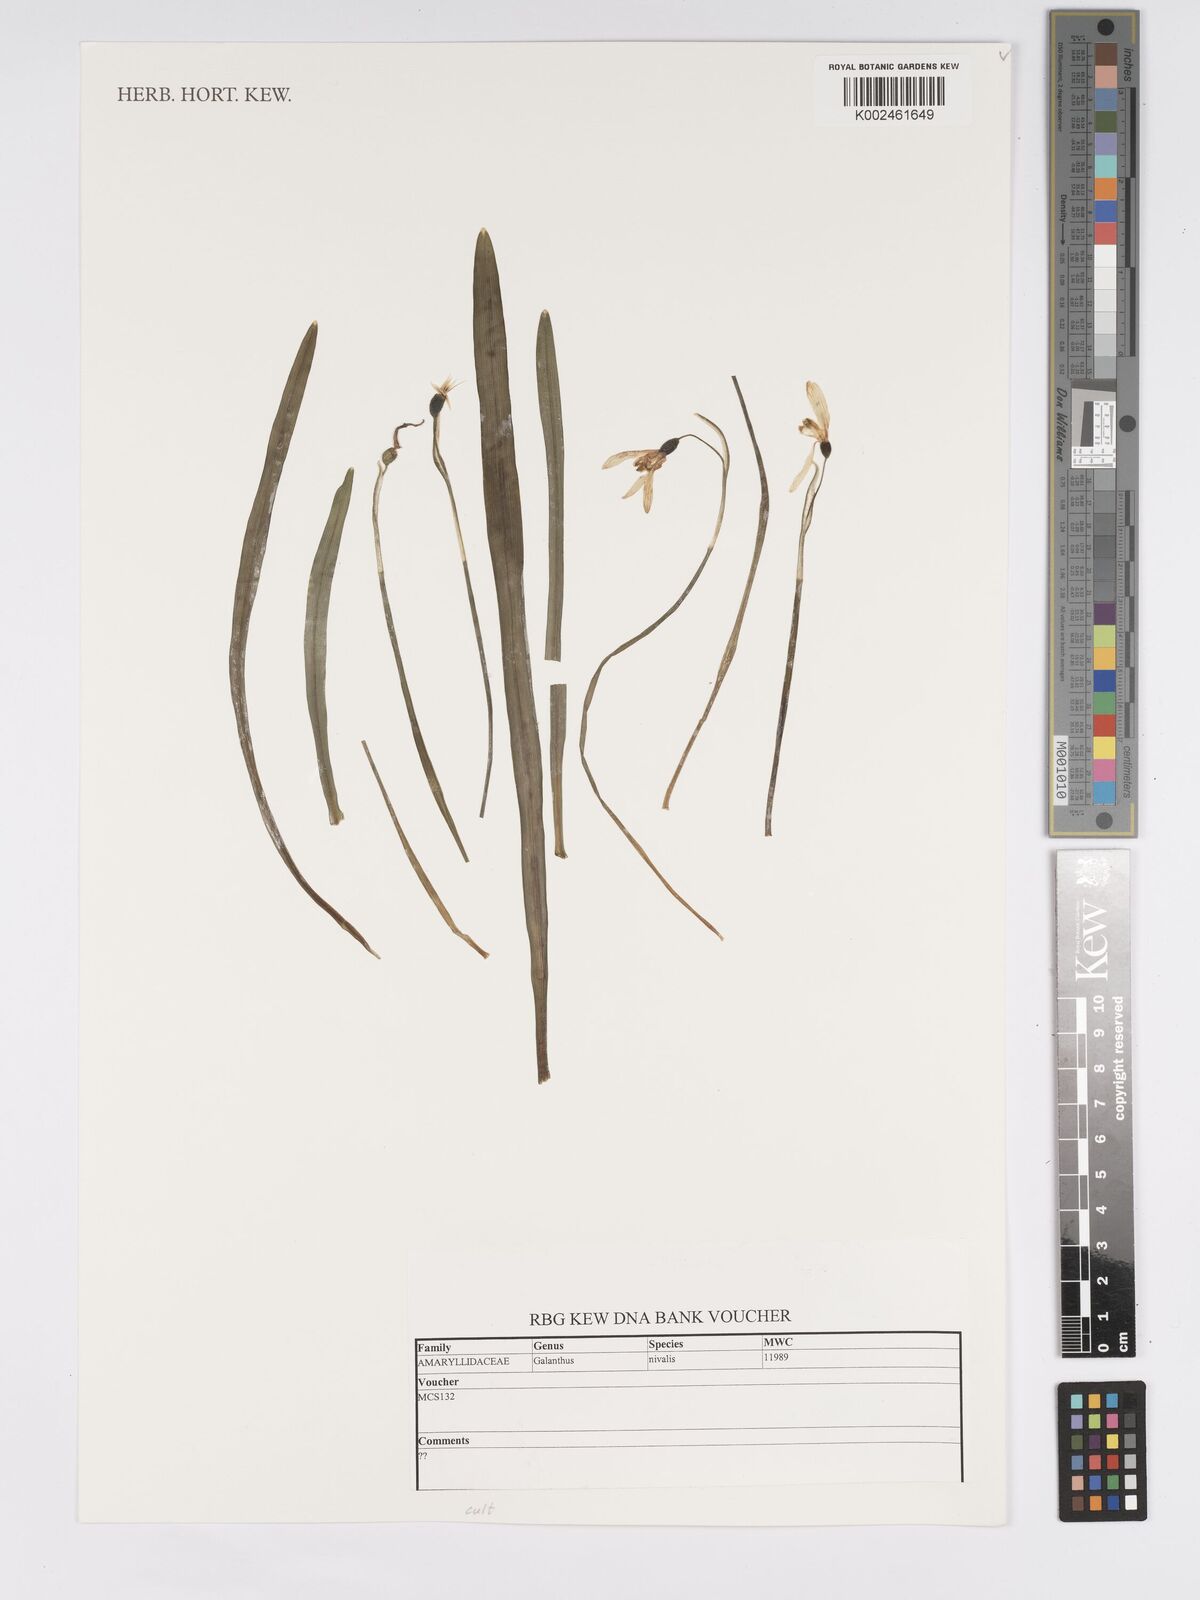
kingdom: Plantae
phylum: Tracheophyta
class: Liliopsida
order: Asparagales
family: Amaryllidaceae
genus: Galanthus
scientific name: Galanthus nivalis
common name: Snowdrop
